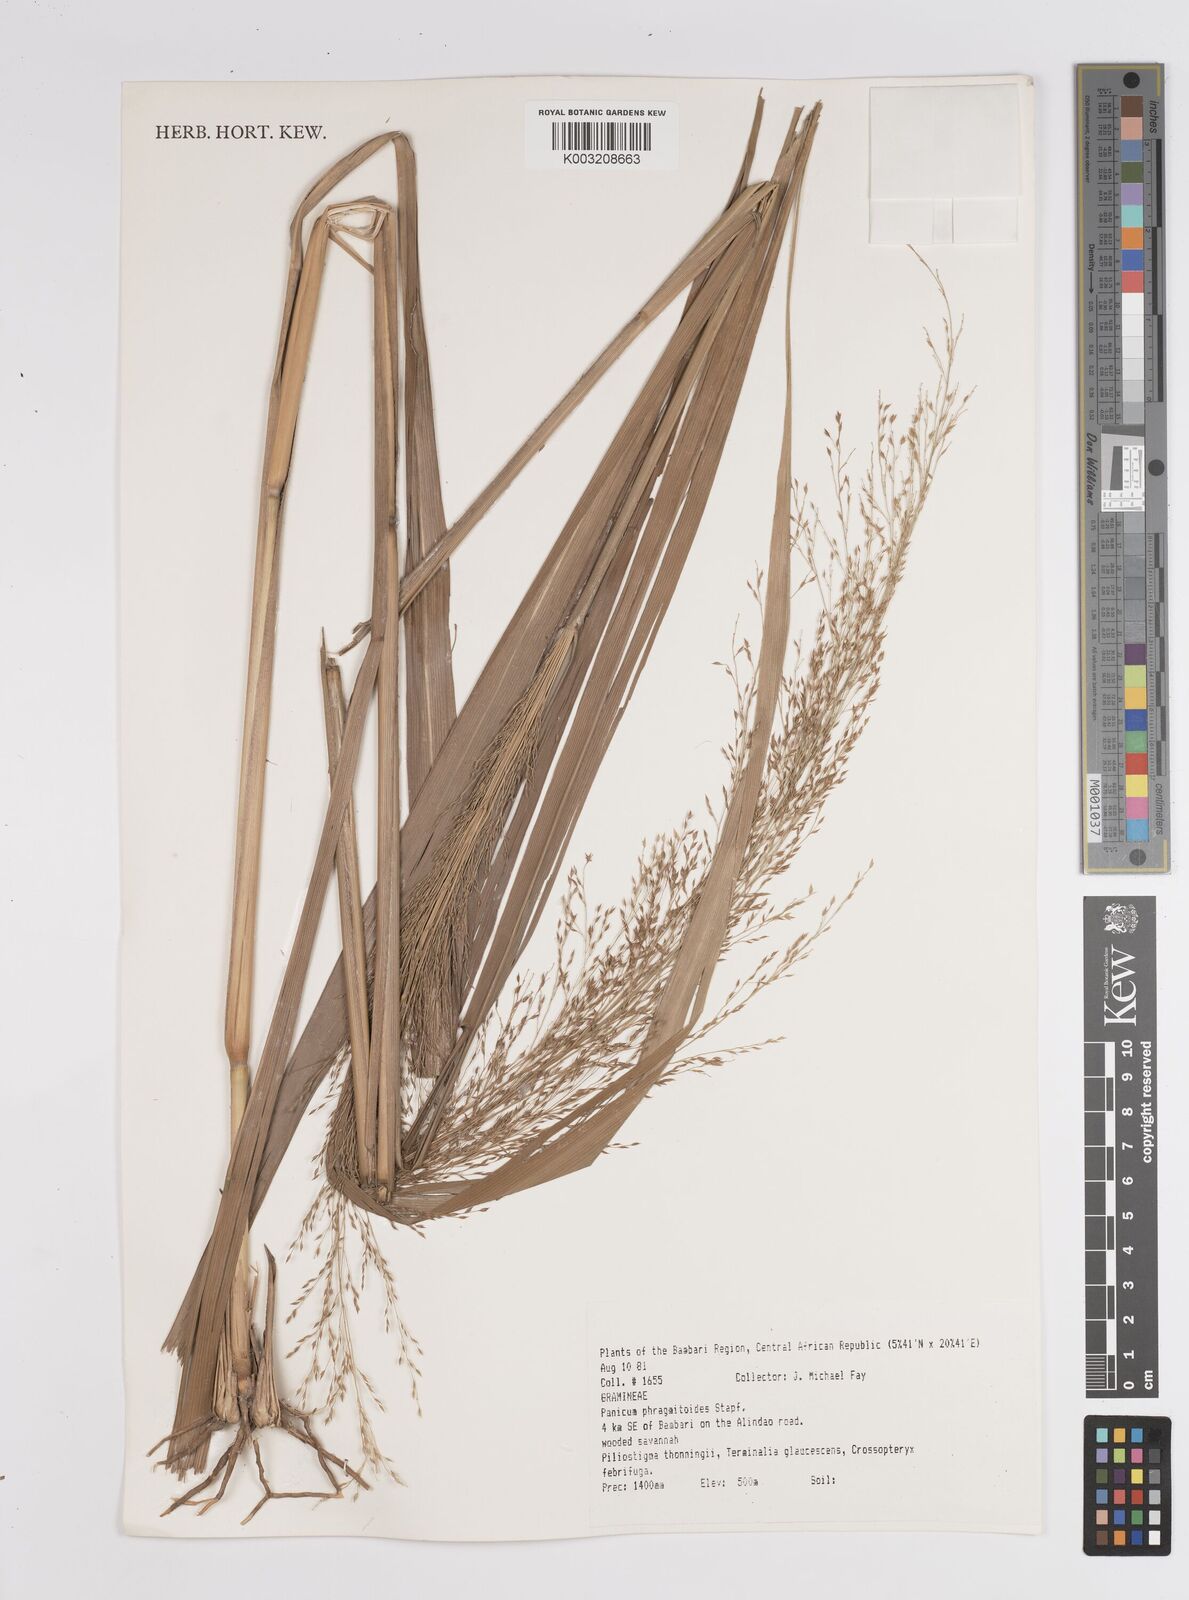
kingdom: Plantae
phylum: Tracheophyta
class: Liliopsida
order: Poales
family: Poaceae
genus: Panicum
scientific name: Panicum phragmitoides
